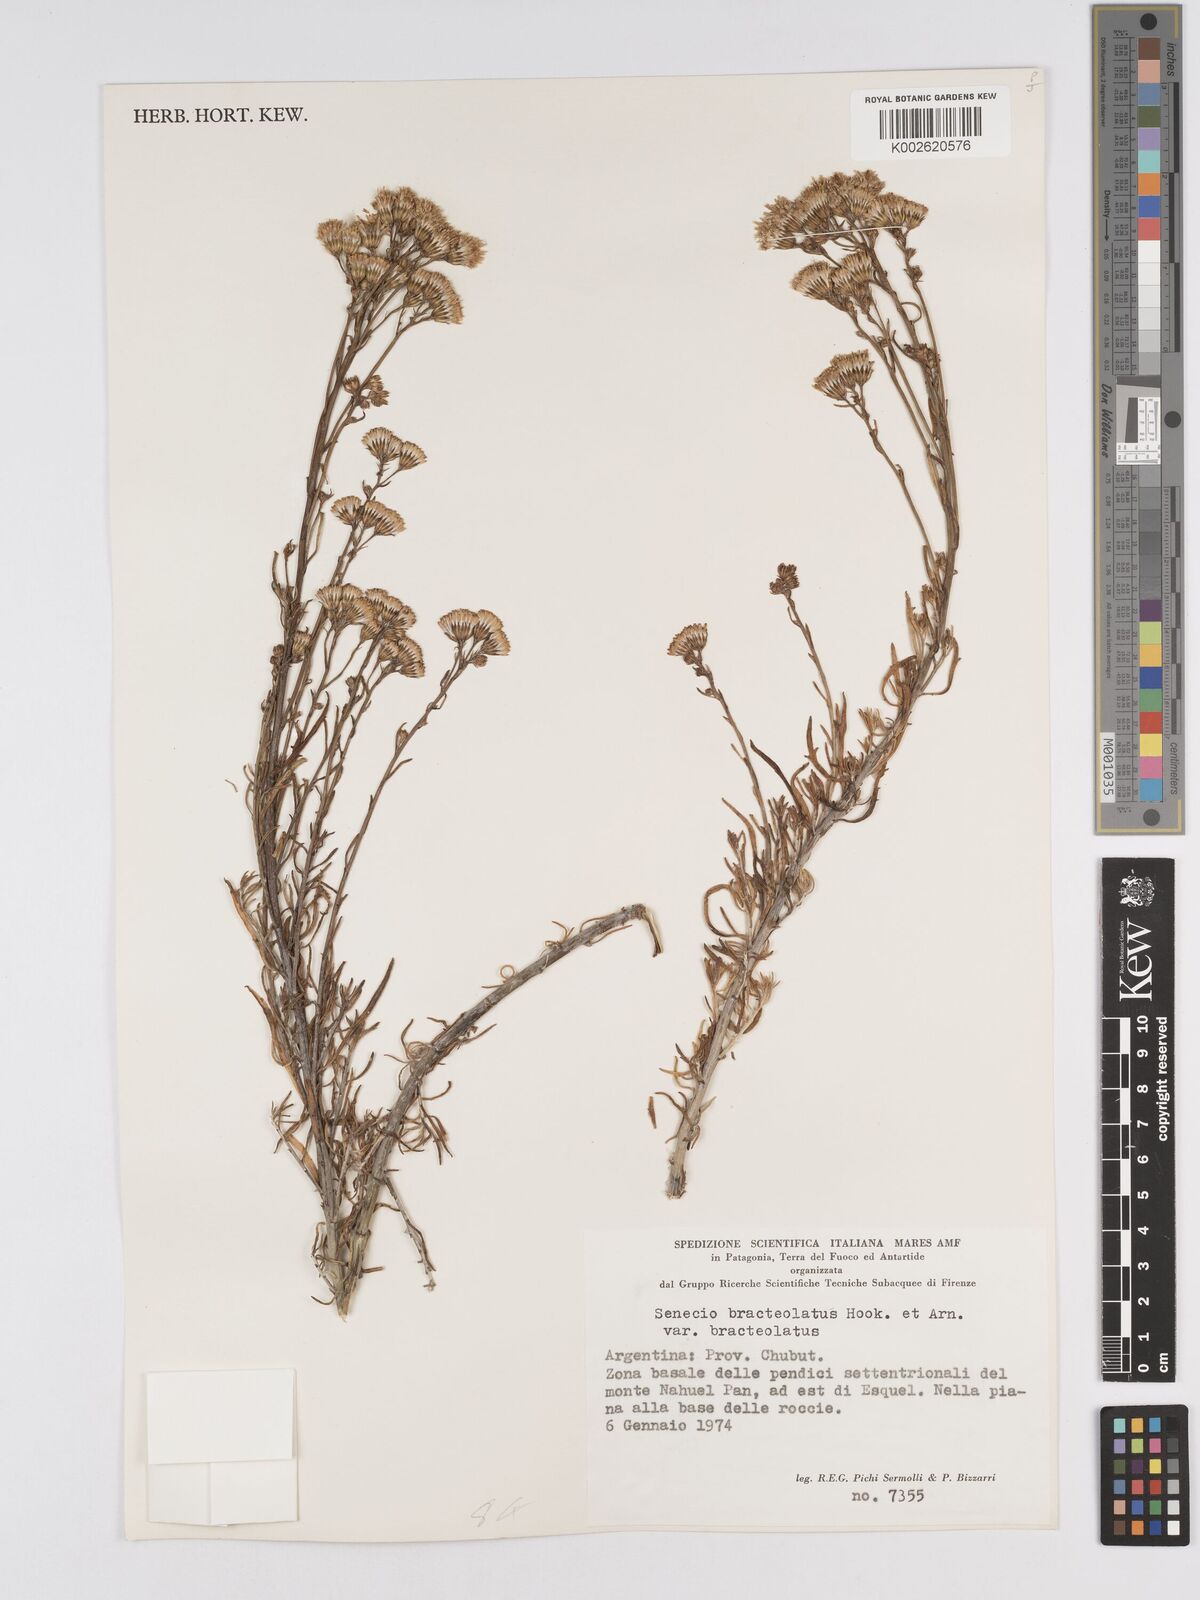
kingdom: Plantae
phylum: Tracheophyta
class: Magnoliopsida
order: Asterales
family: Asteraceae
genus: Senecio
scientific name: Senecio bracteolatus
